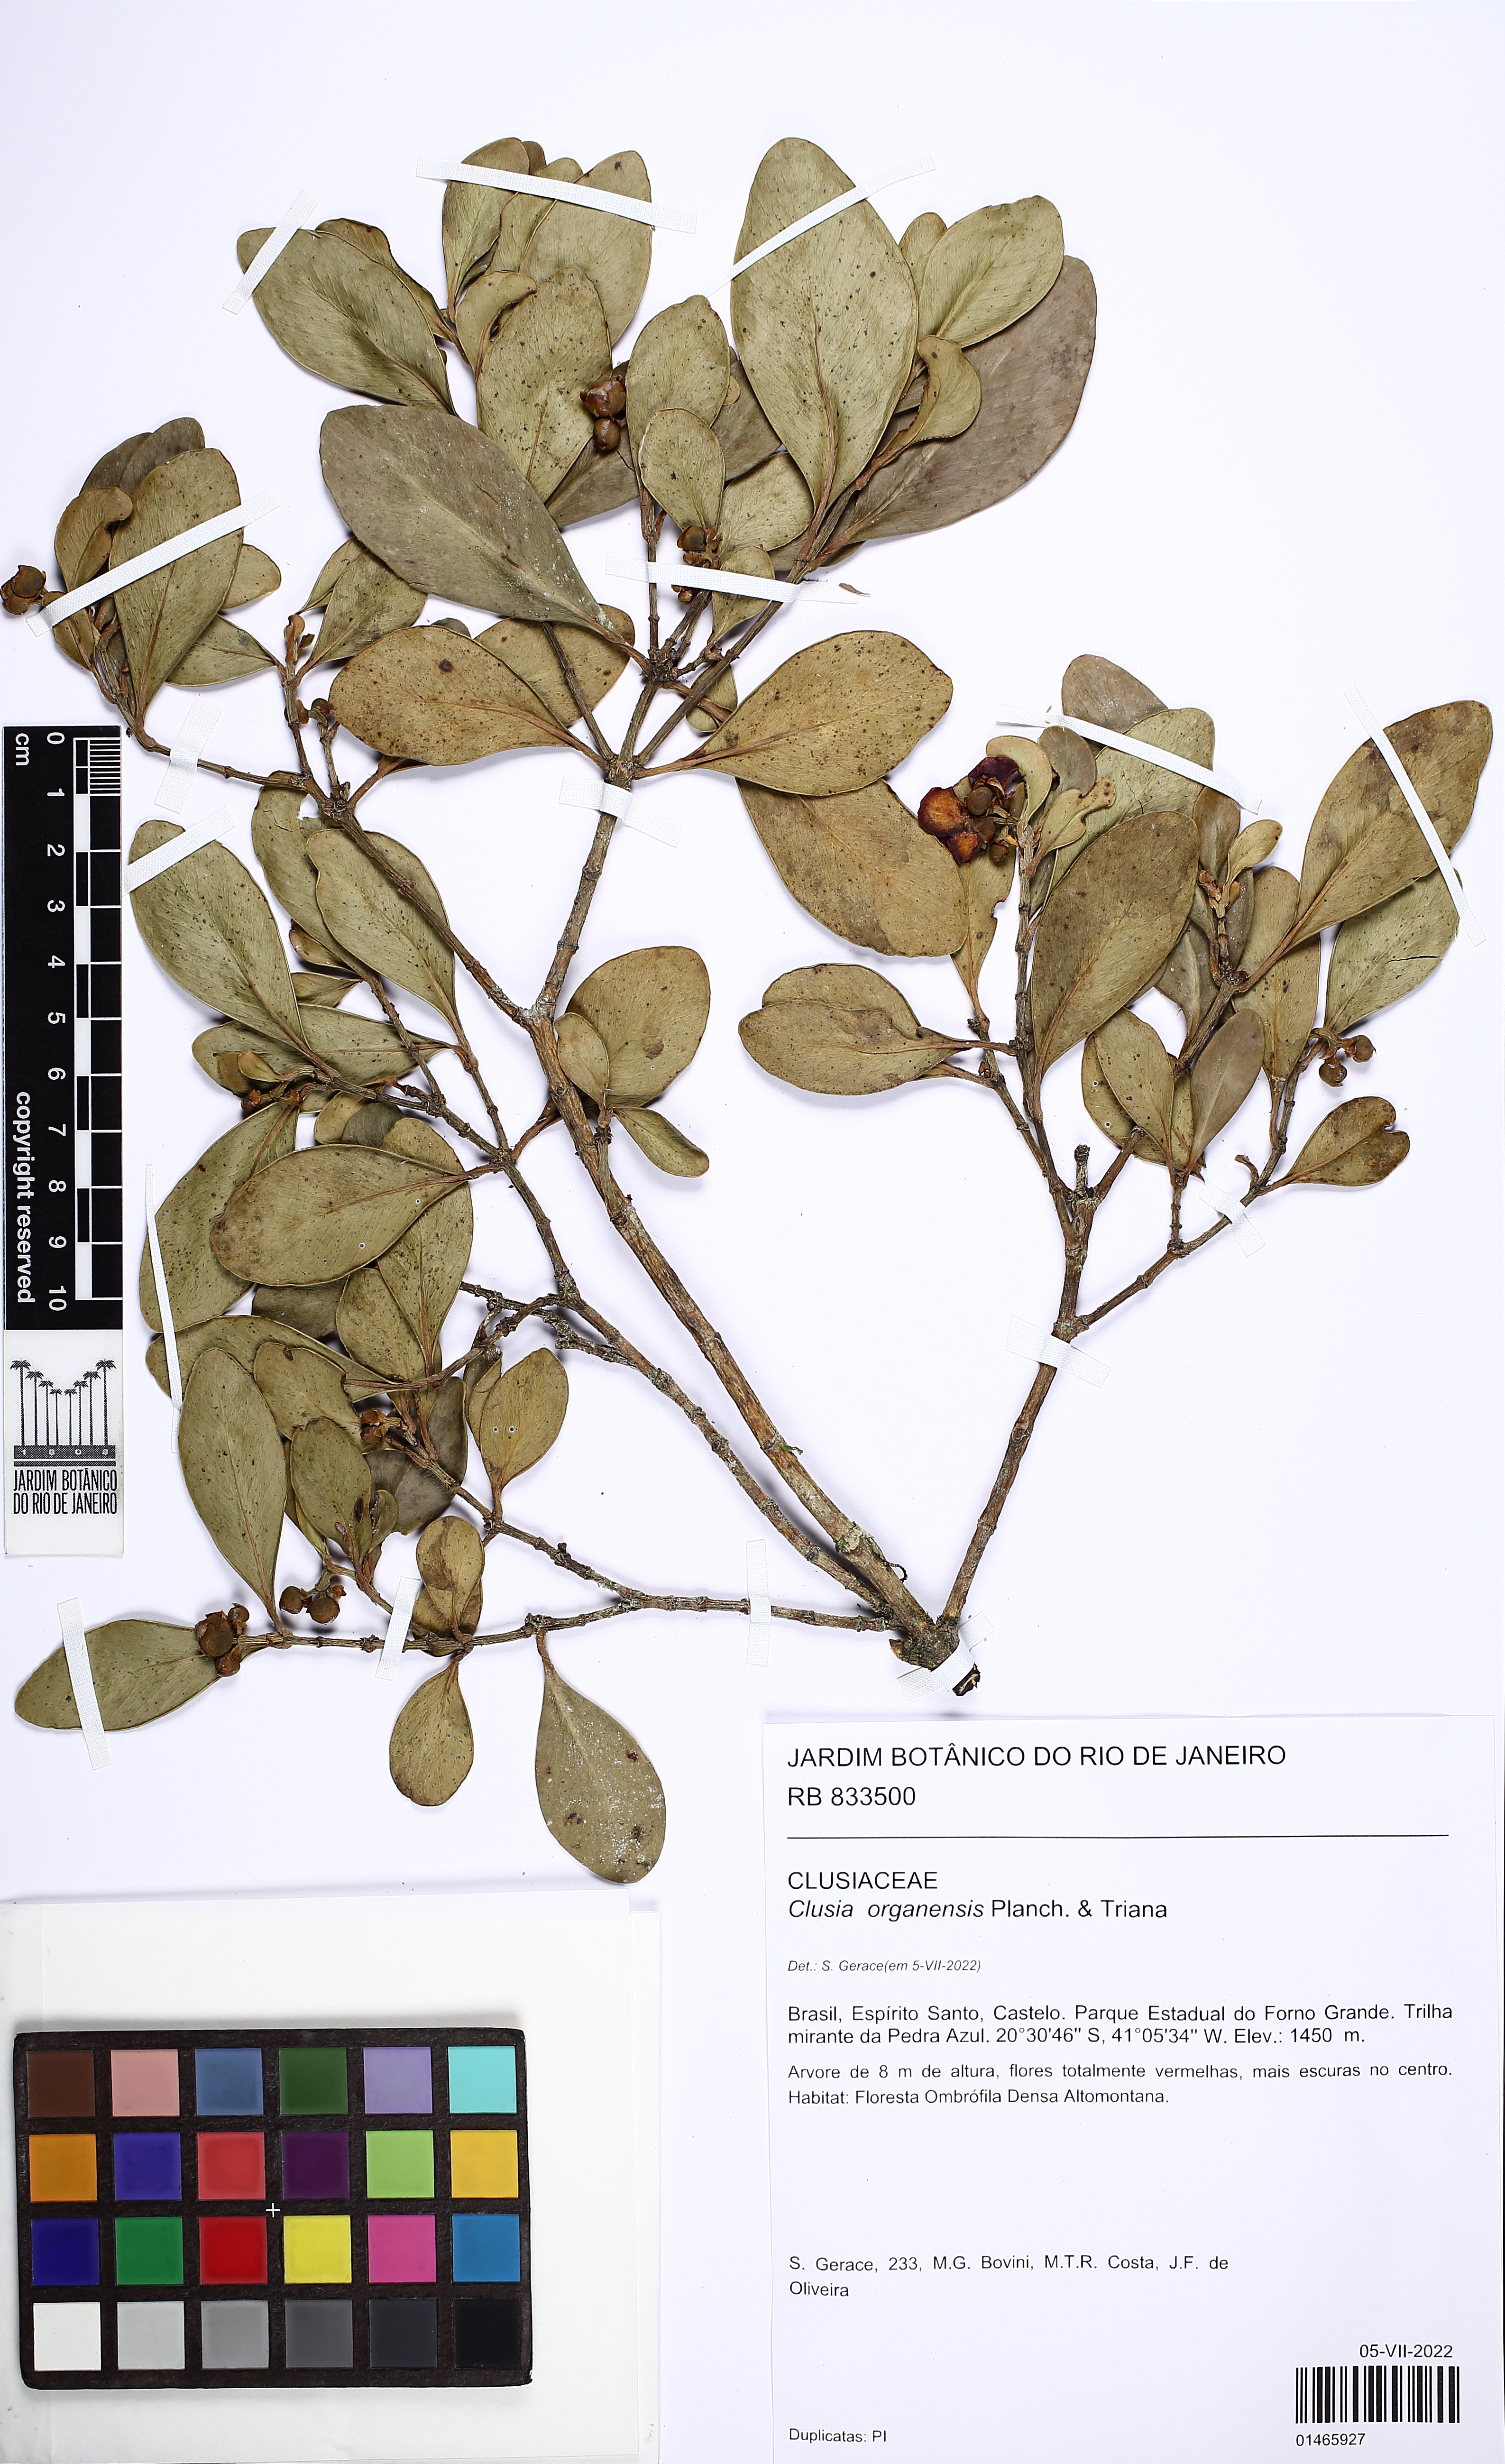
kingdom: Plantae
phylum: Tracheophyta
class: Magnoliopsida
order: Malpighiales
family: Clusiaceae
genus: Clusia
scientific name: Clusia organensis
